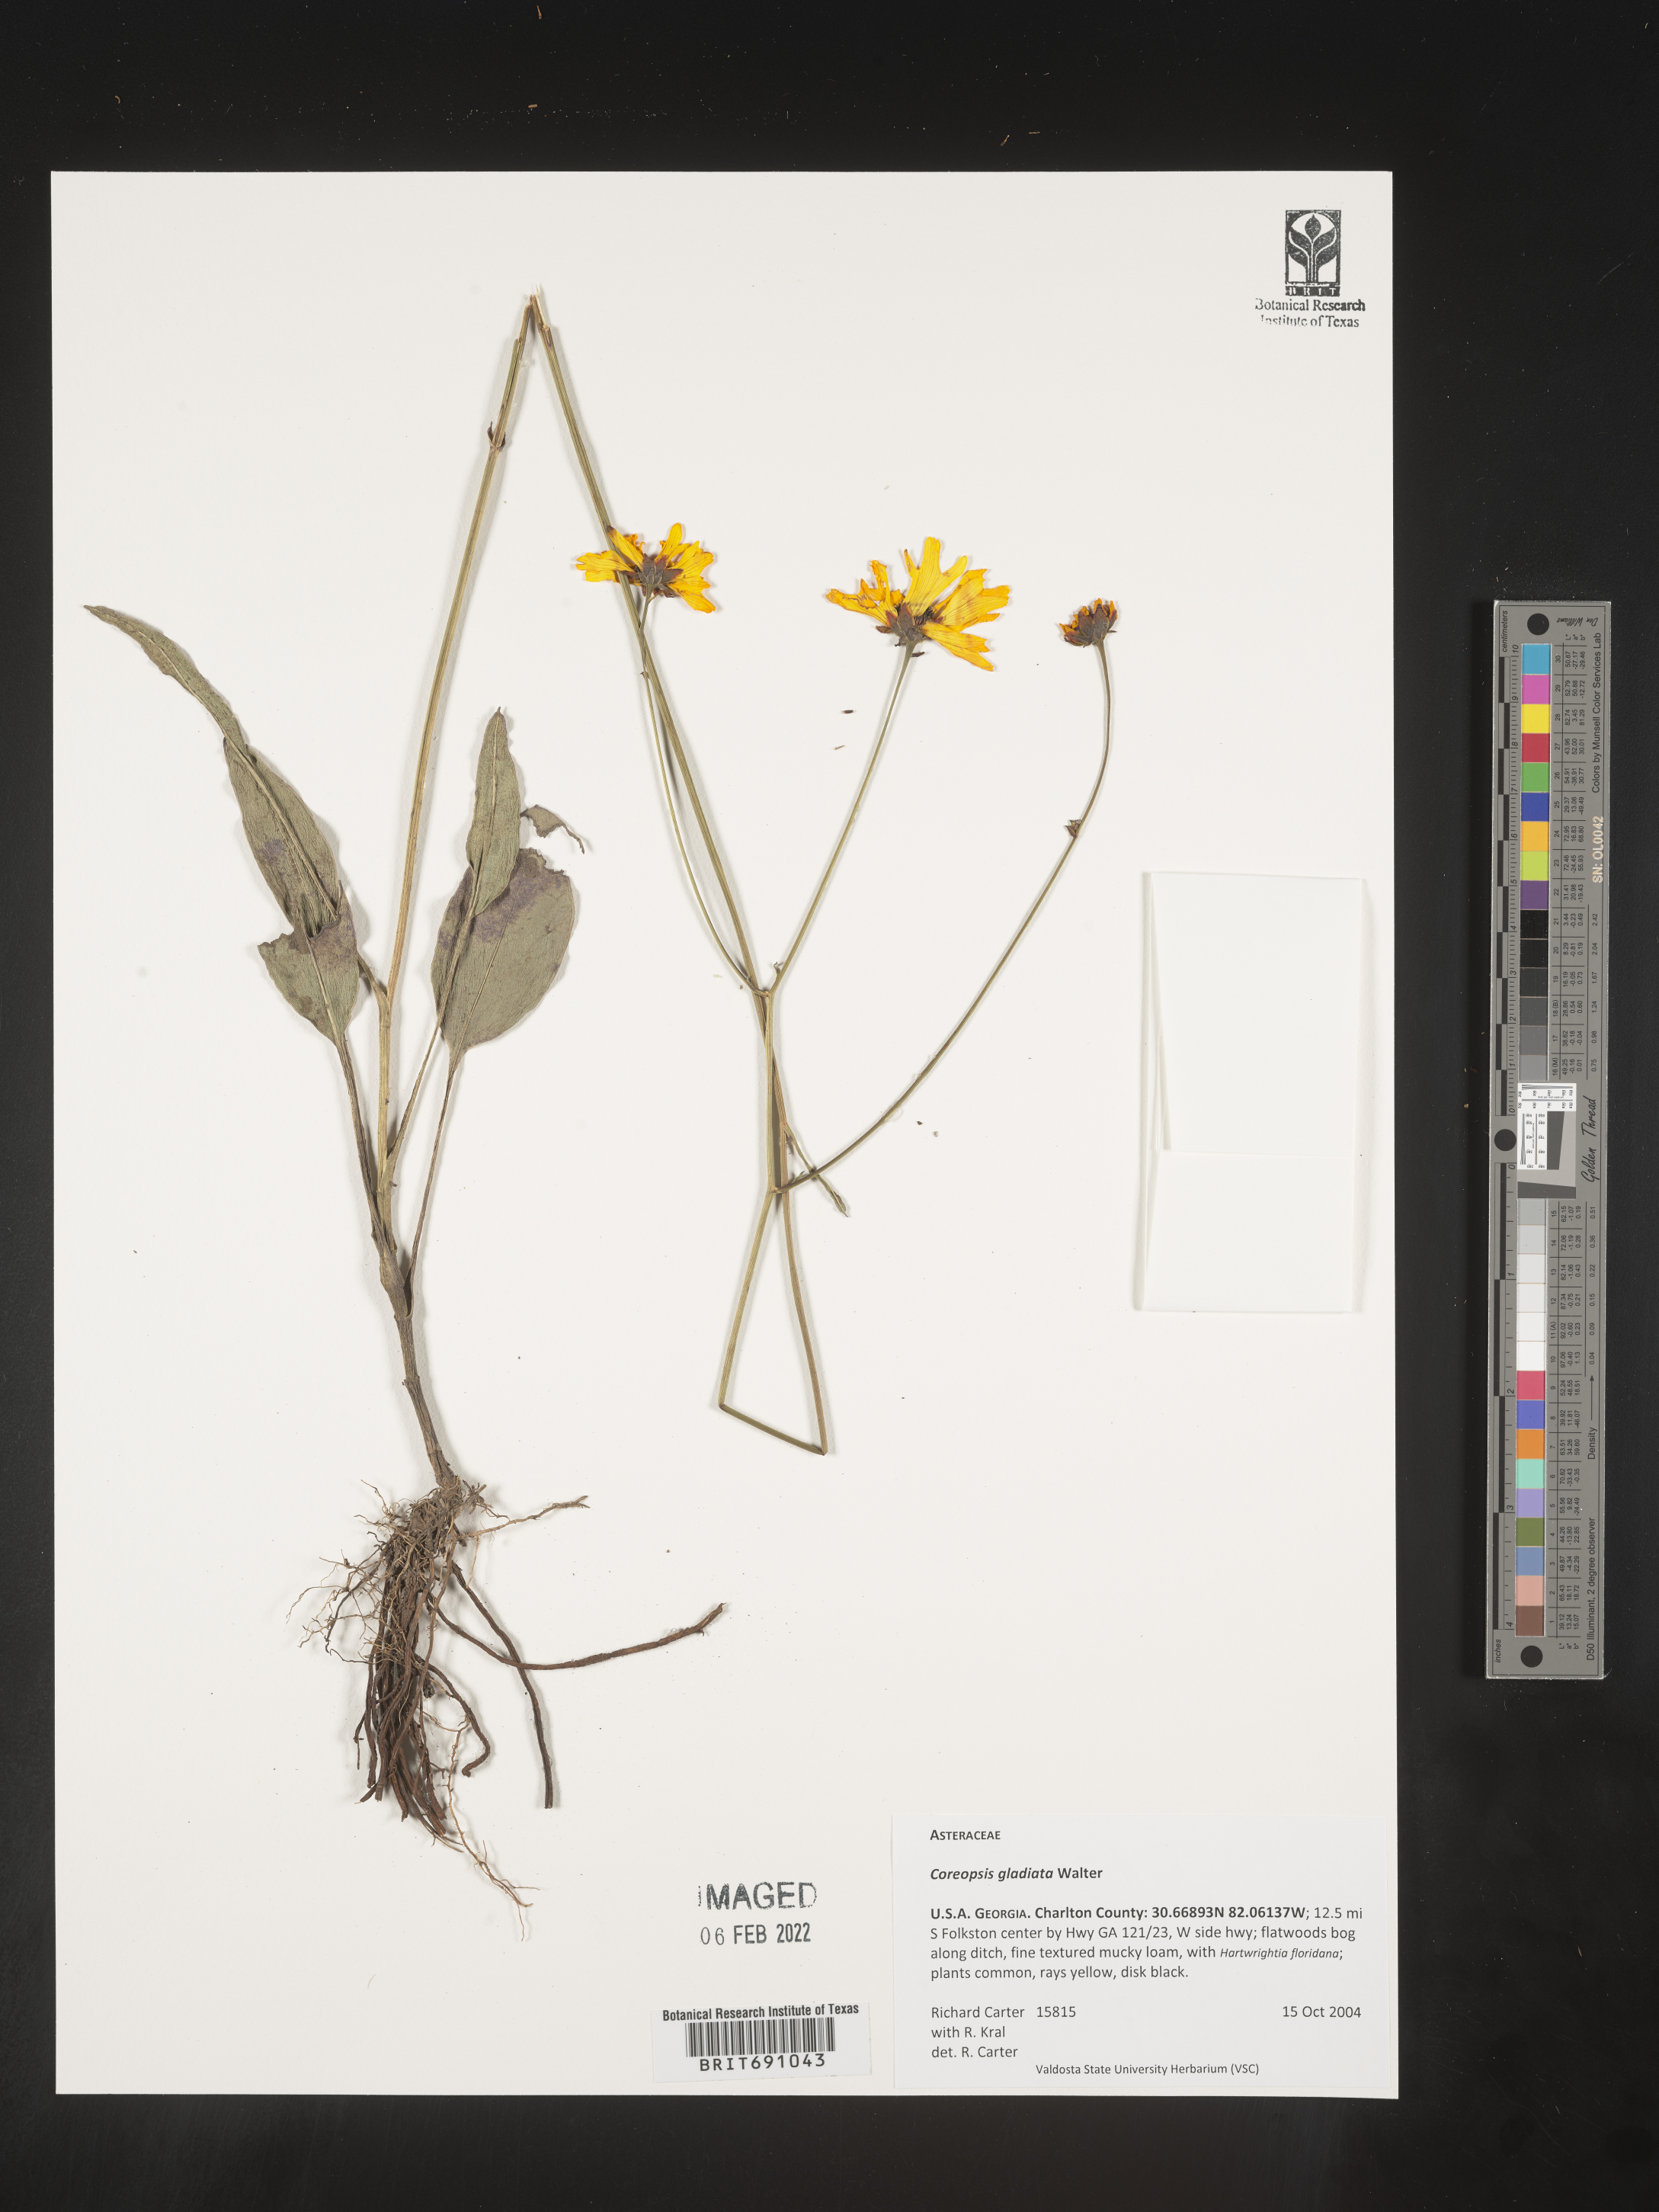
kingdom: Plantae
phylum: Tracheophyta
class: Magnoliopsida
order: Asterales
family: Asteraceae
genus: Coreopsis
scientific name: Coreopsis gladiata
